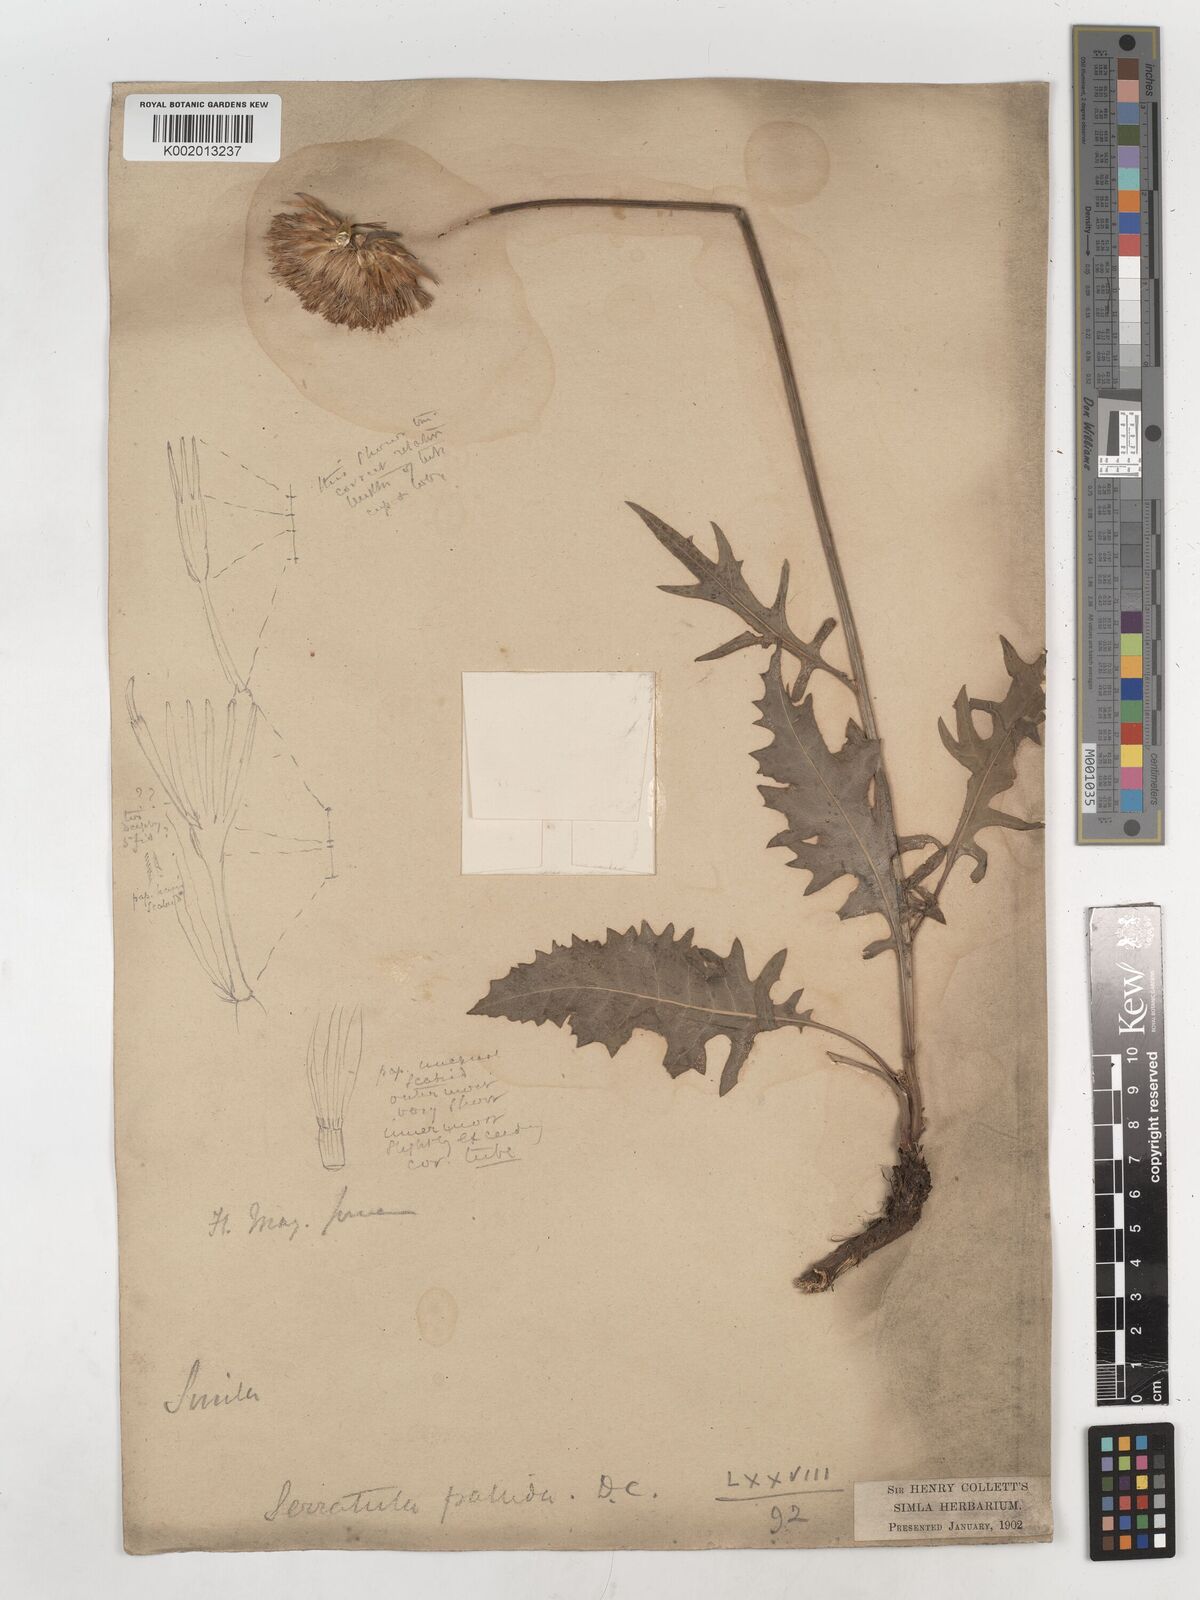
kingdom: Plantae
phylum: Tracheophyta
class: Magnoliopsida
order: Asterales
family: Asteraceae
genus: Klasea
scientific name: Klasea pallida
